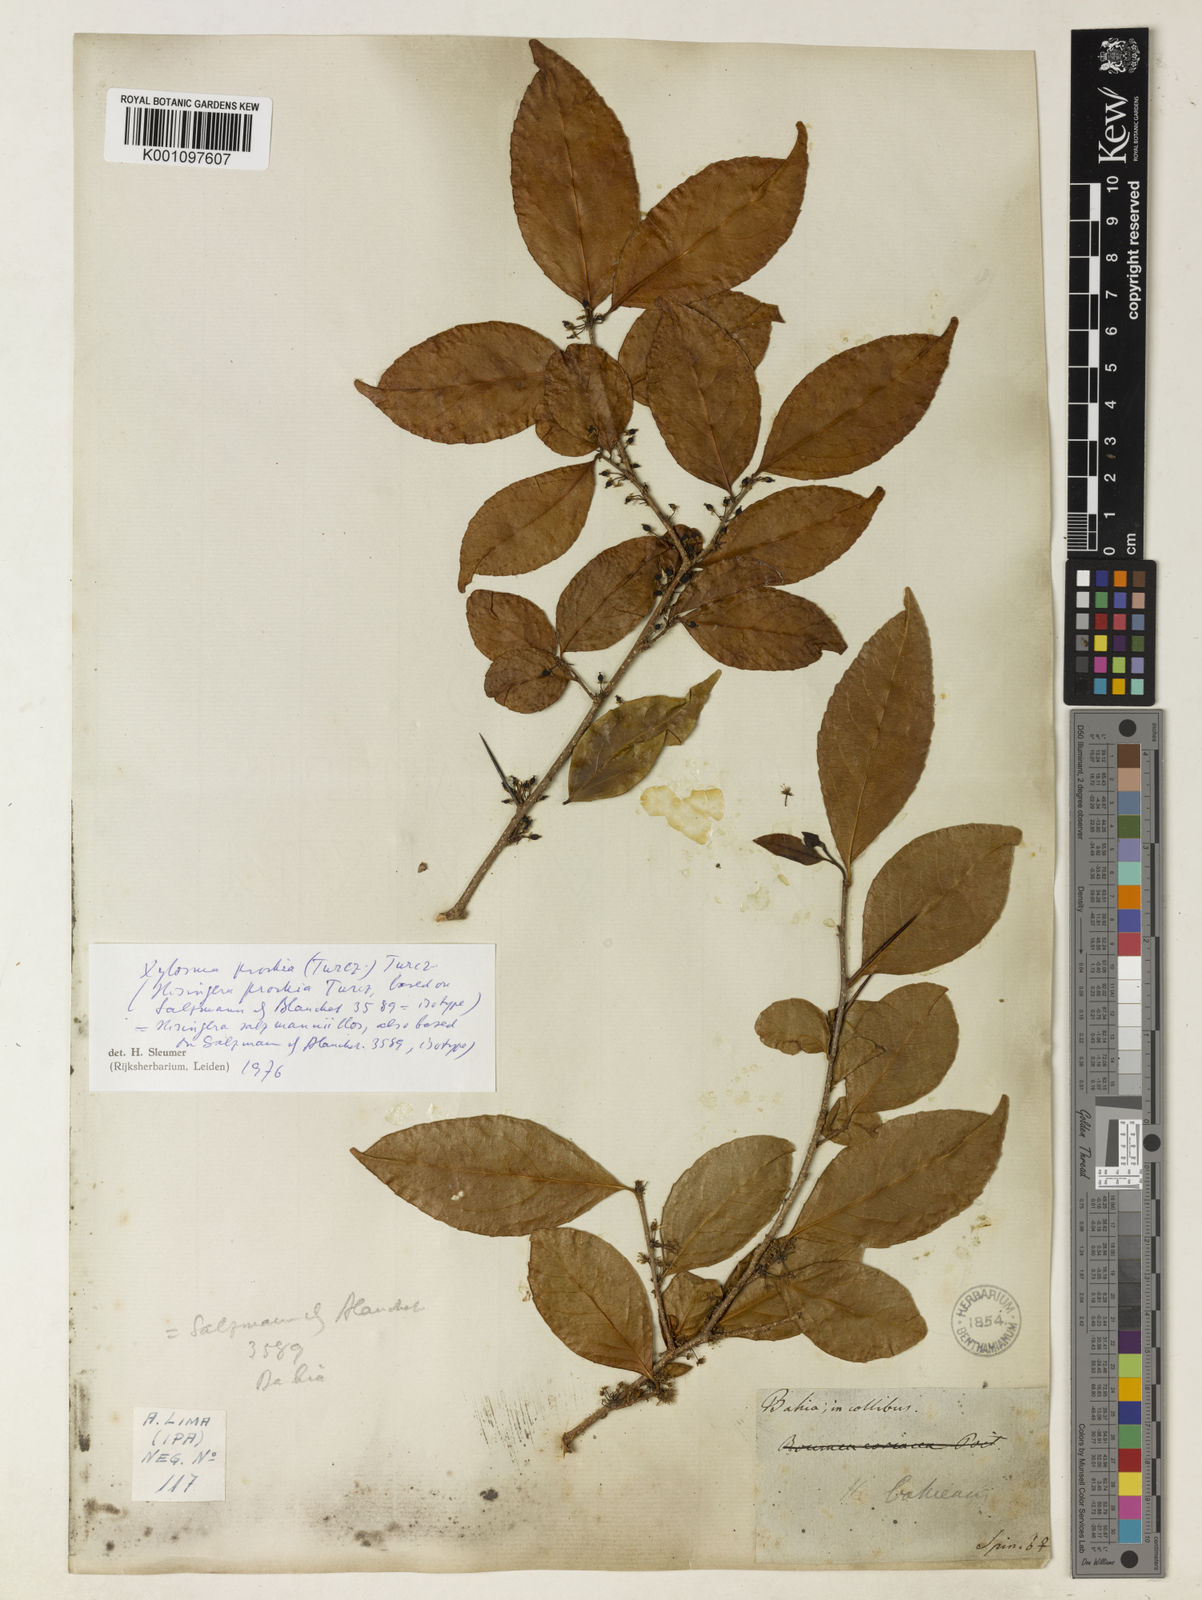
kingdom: Plantae
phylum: Tracheophyta
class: Magnoliopsida
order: Malpighiales
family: Salicaceae
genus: Xylosma
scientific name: Xylosma prockia
